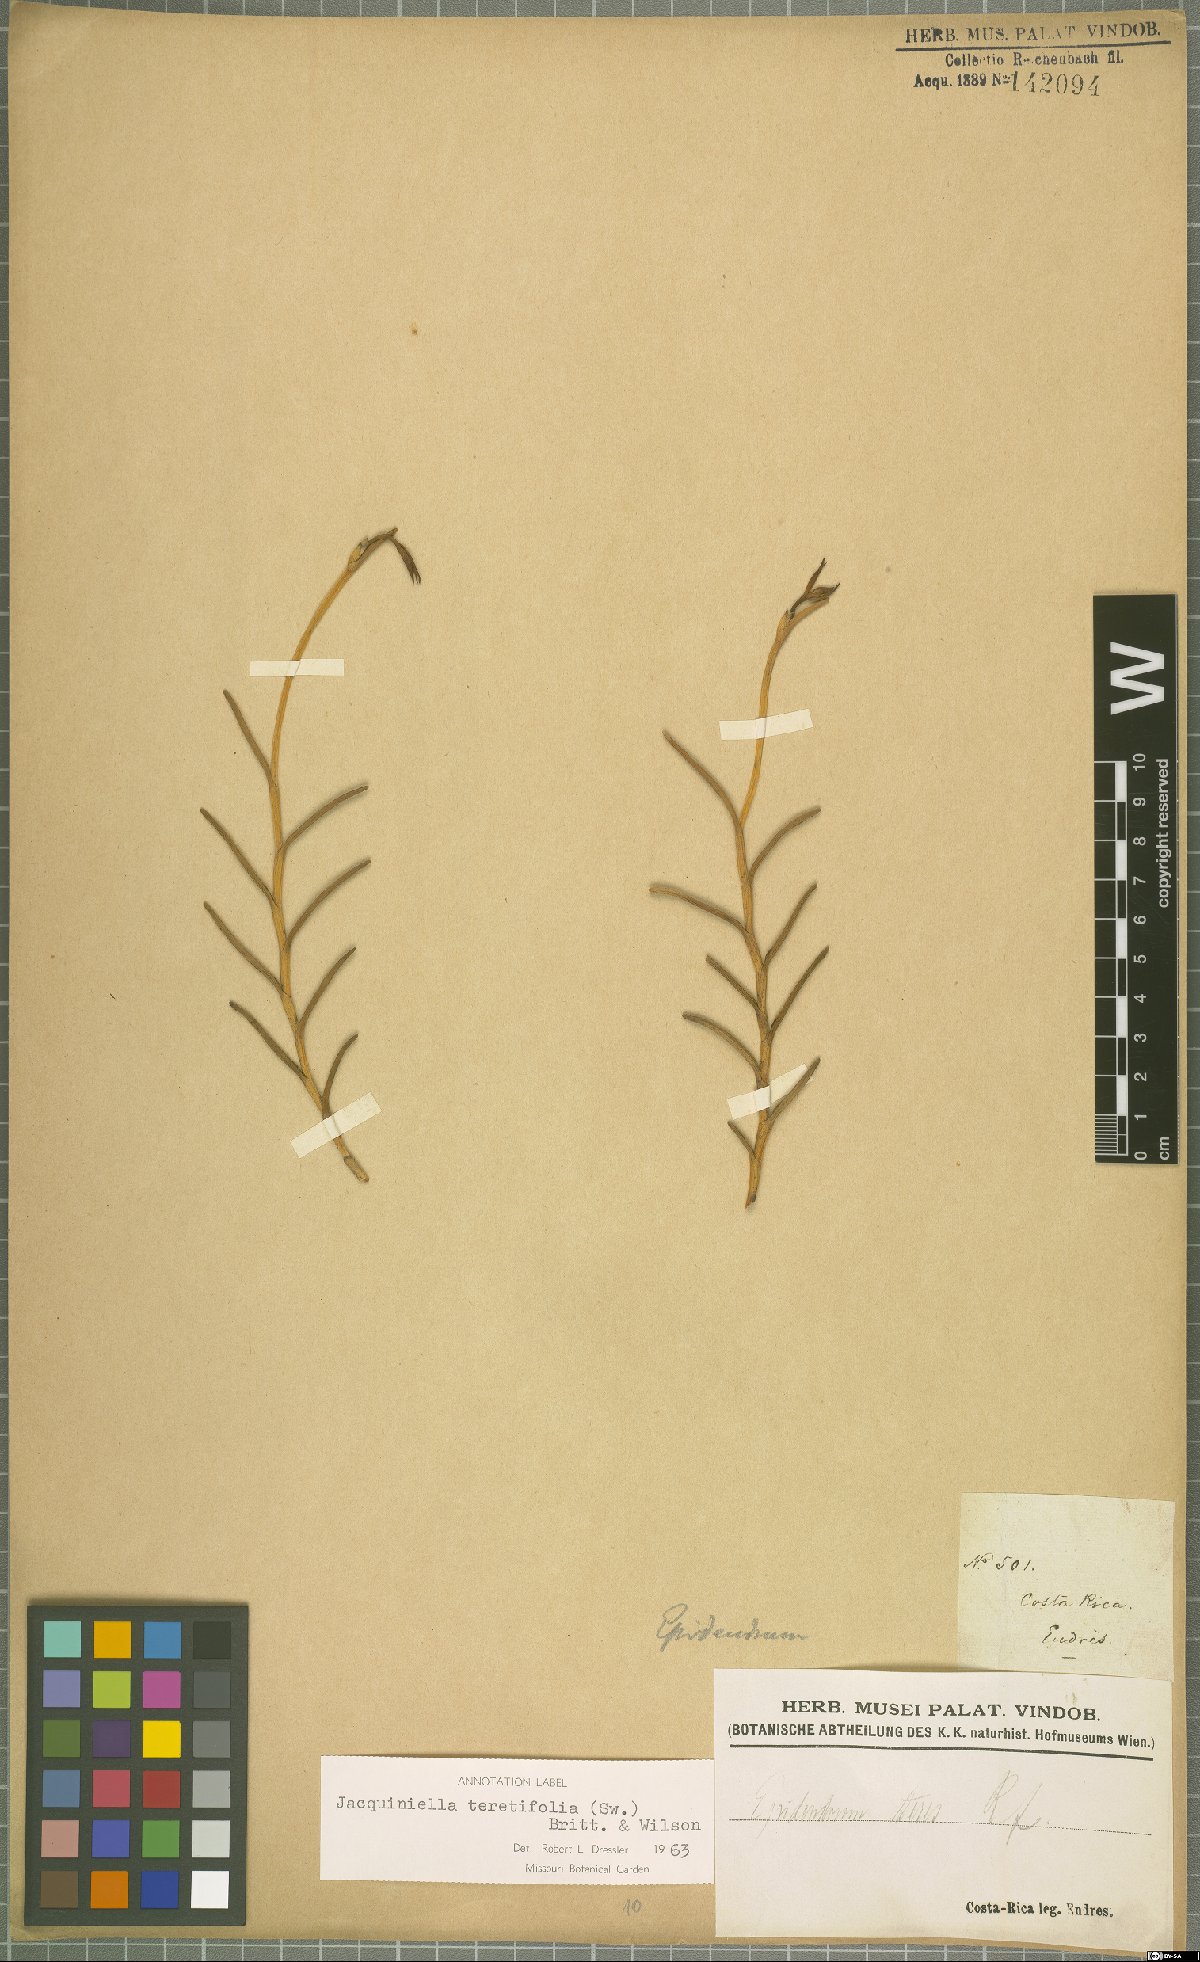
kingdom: Plantae
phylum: Tracheophyta
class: Liliopsida
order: Asparagales
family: Orchidaceae
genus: Jacquiniella
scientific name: Jacquiniella teretifolia
